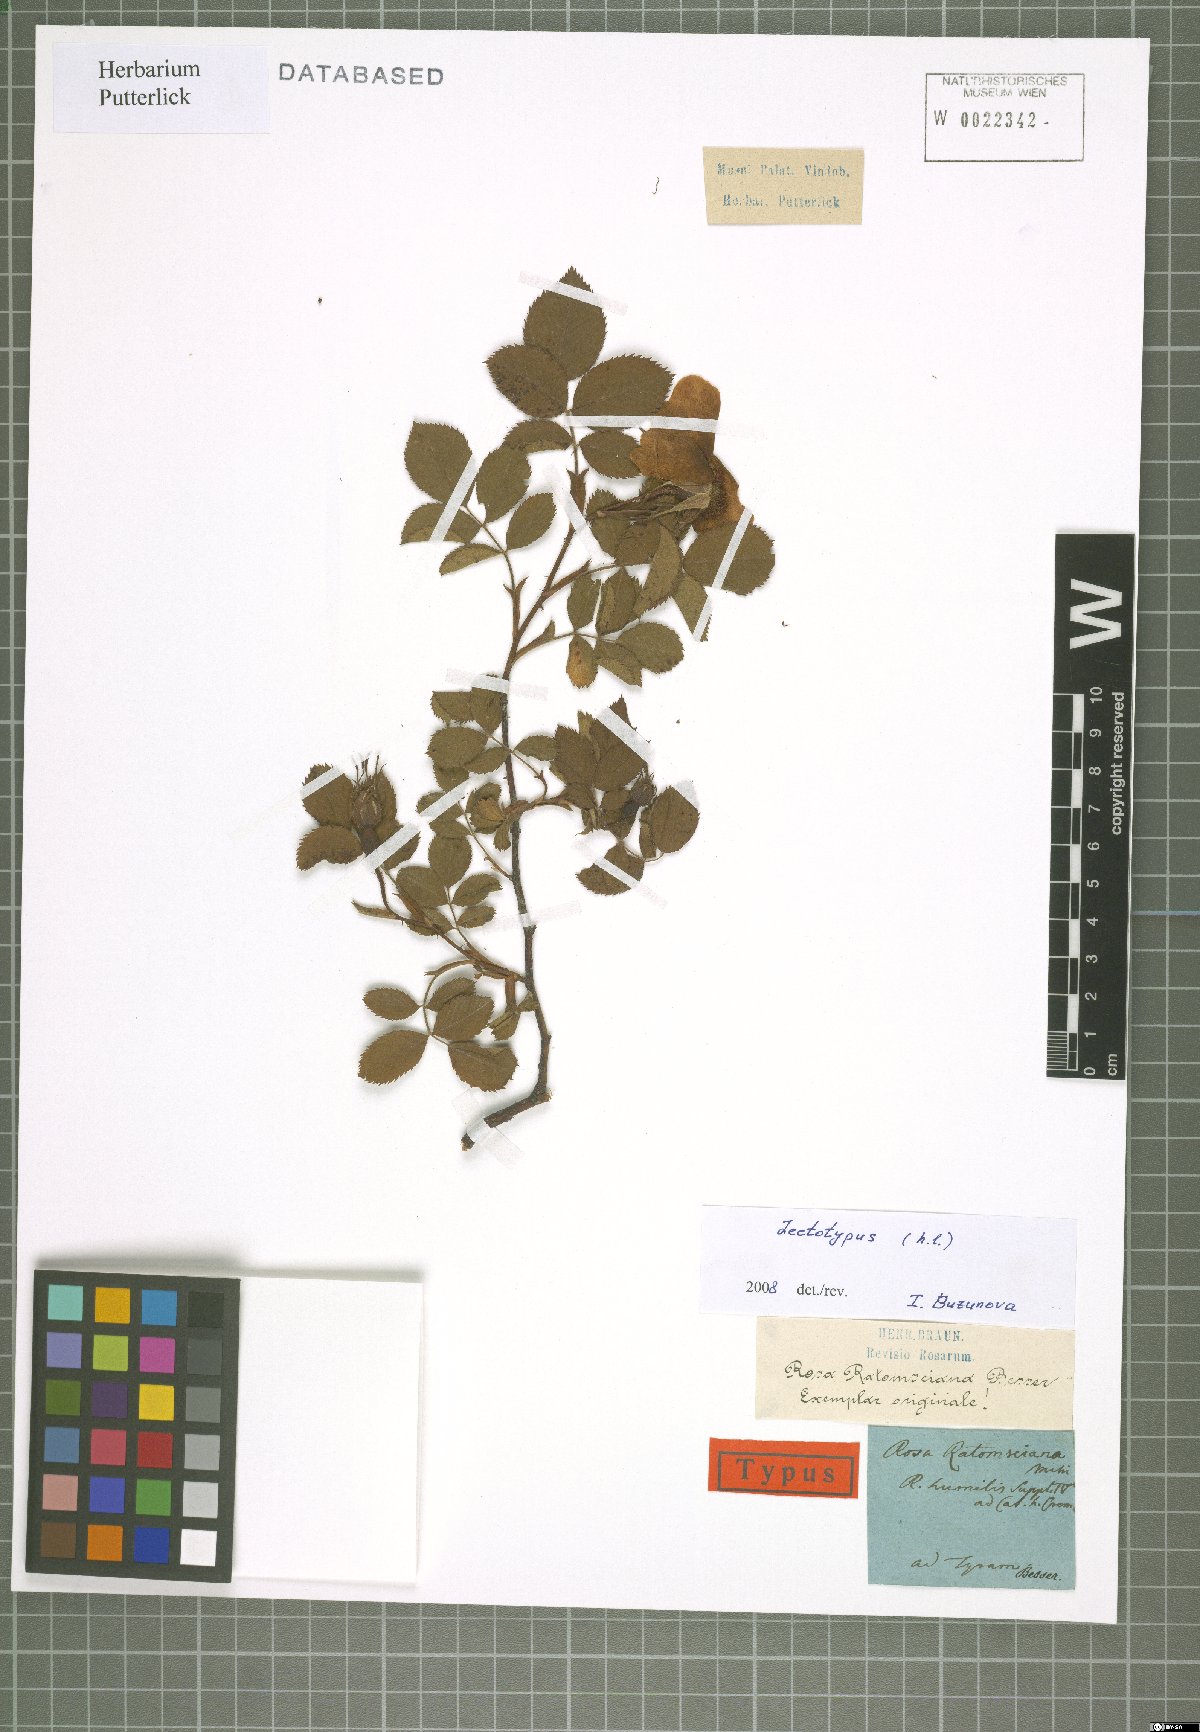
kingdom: Plantae
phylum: Tracheophyta
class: Magnoliopsida
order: Rosales
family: Rosaceae
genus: Rosa
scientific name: Rosa gallica
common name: French rose
